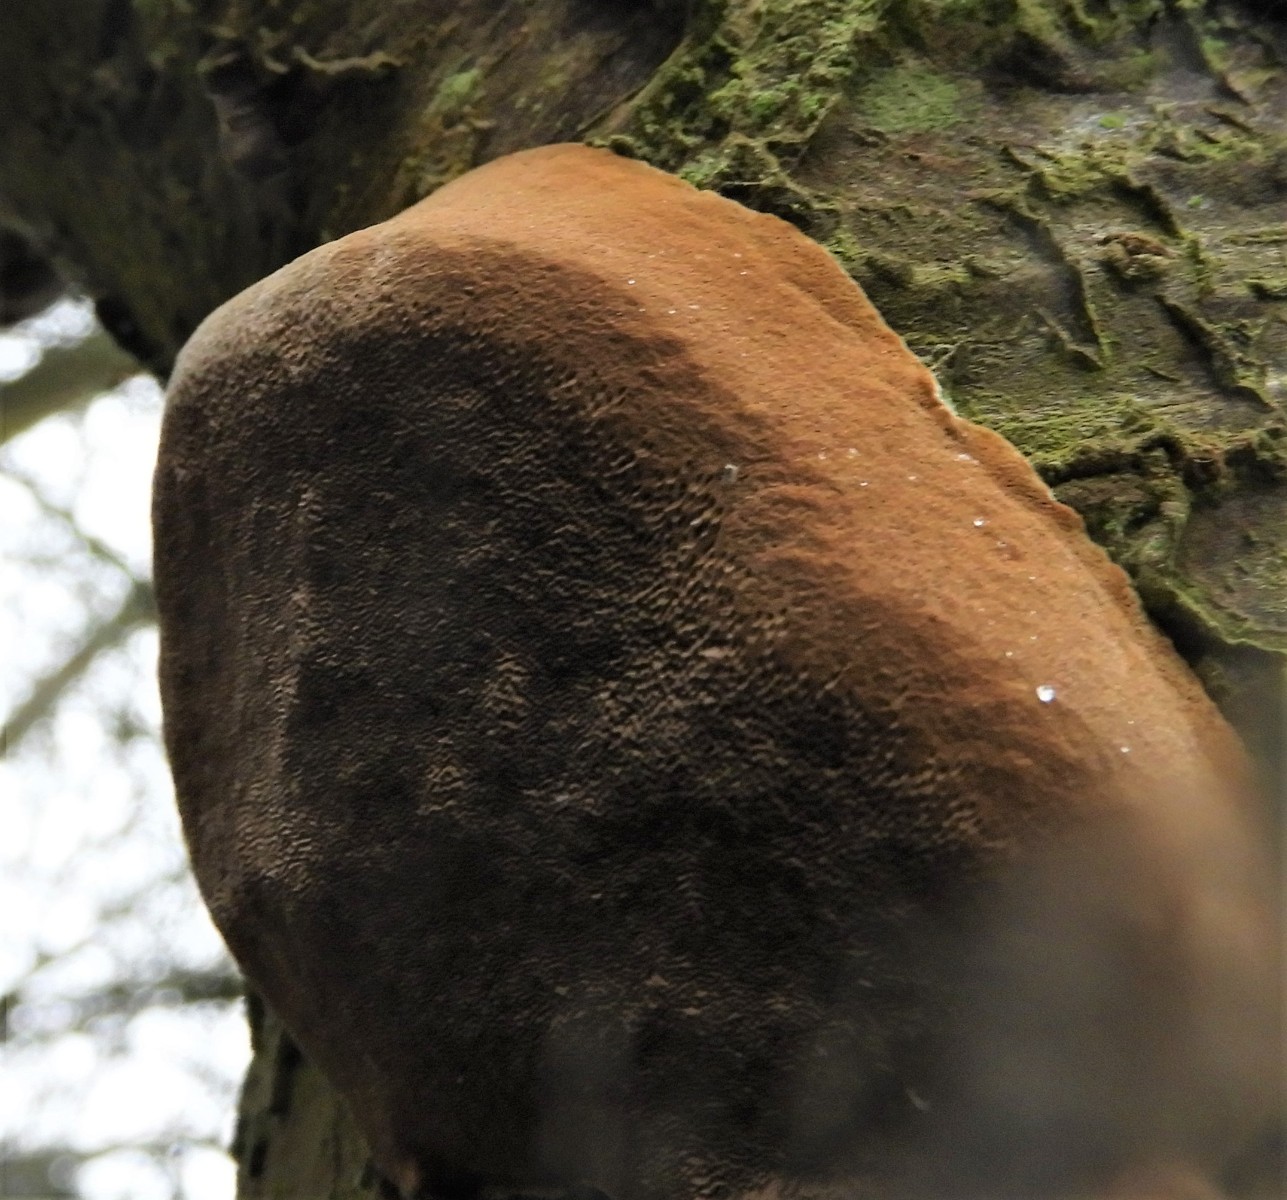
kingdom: Fungi
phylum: Basidiomycota
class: Agaricomycetes
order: Hymenochaetales
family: Hymenochaetaceae
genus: Phellinus
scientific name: Phellinus pomaceus
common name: blomme-ildporesvamp
